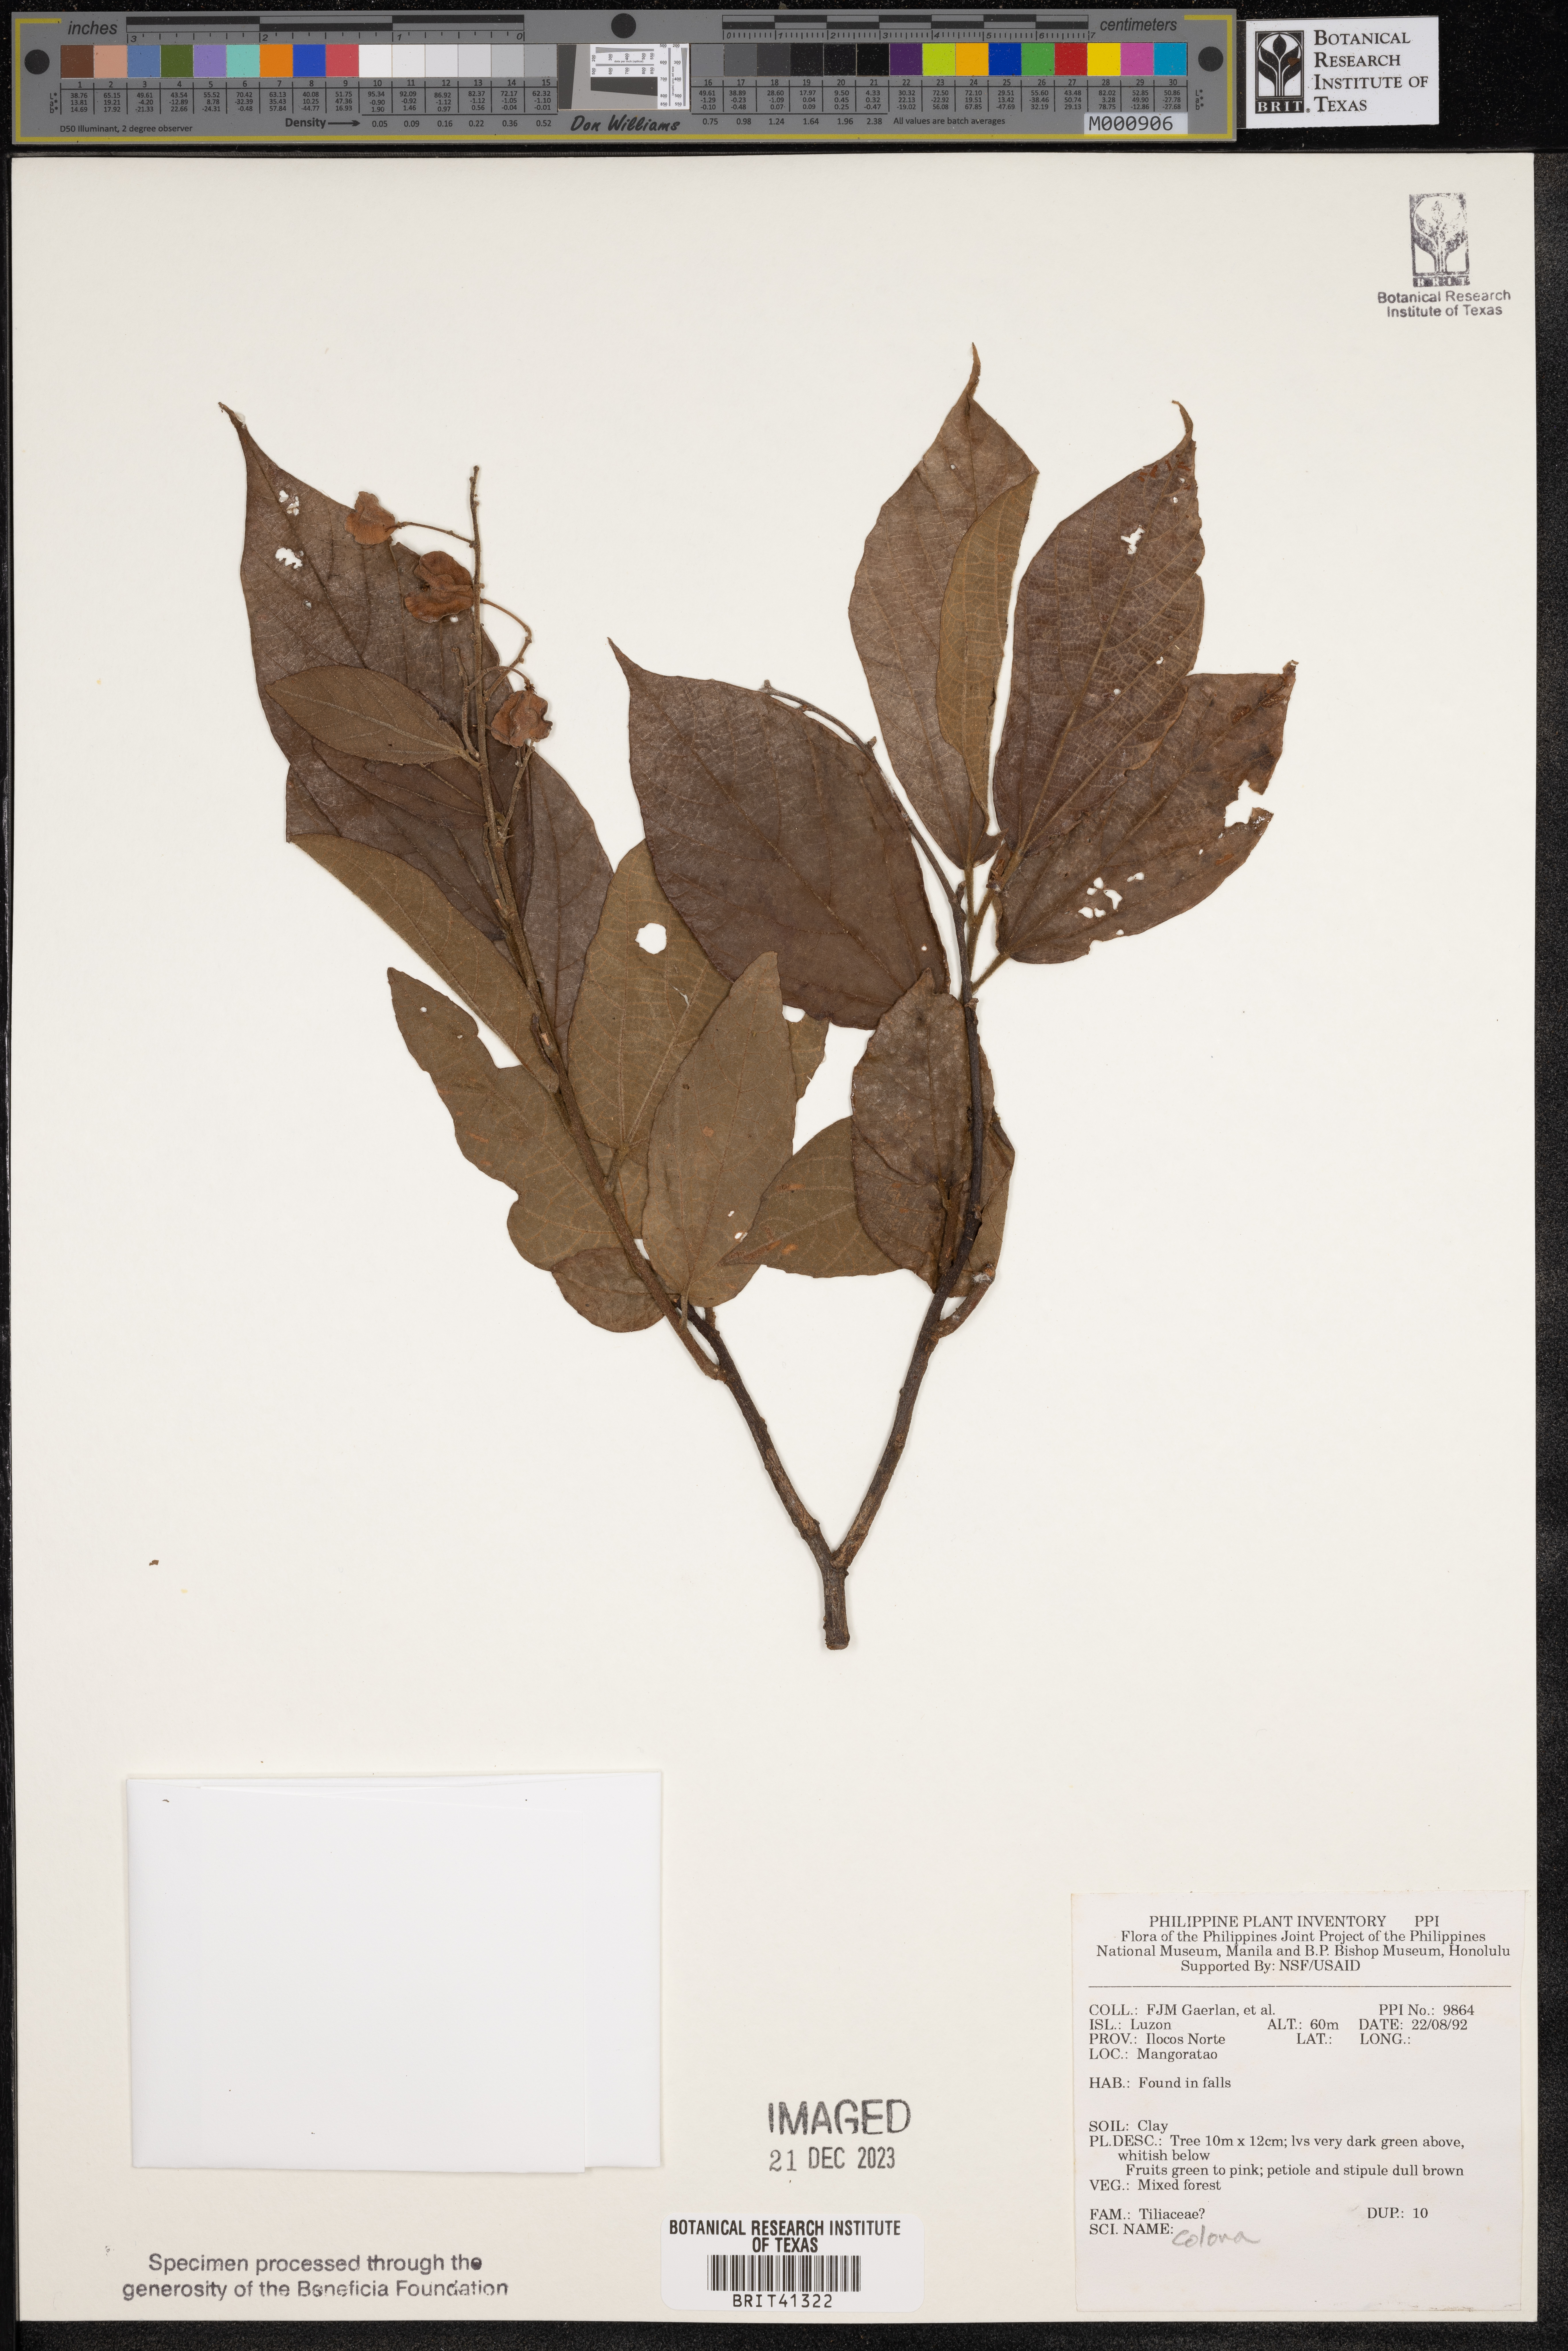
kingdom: Plantae
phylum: Tracheophyta
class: Magnoliopsida
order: Malvales
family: Malvaceae
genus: Colona
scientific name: Colona
